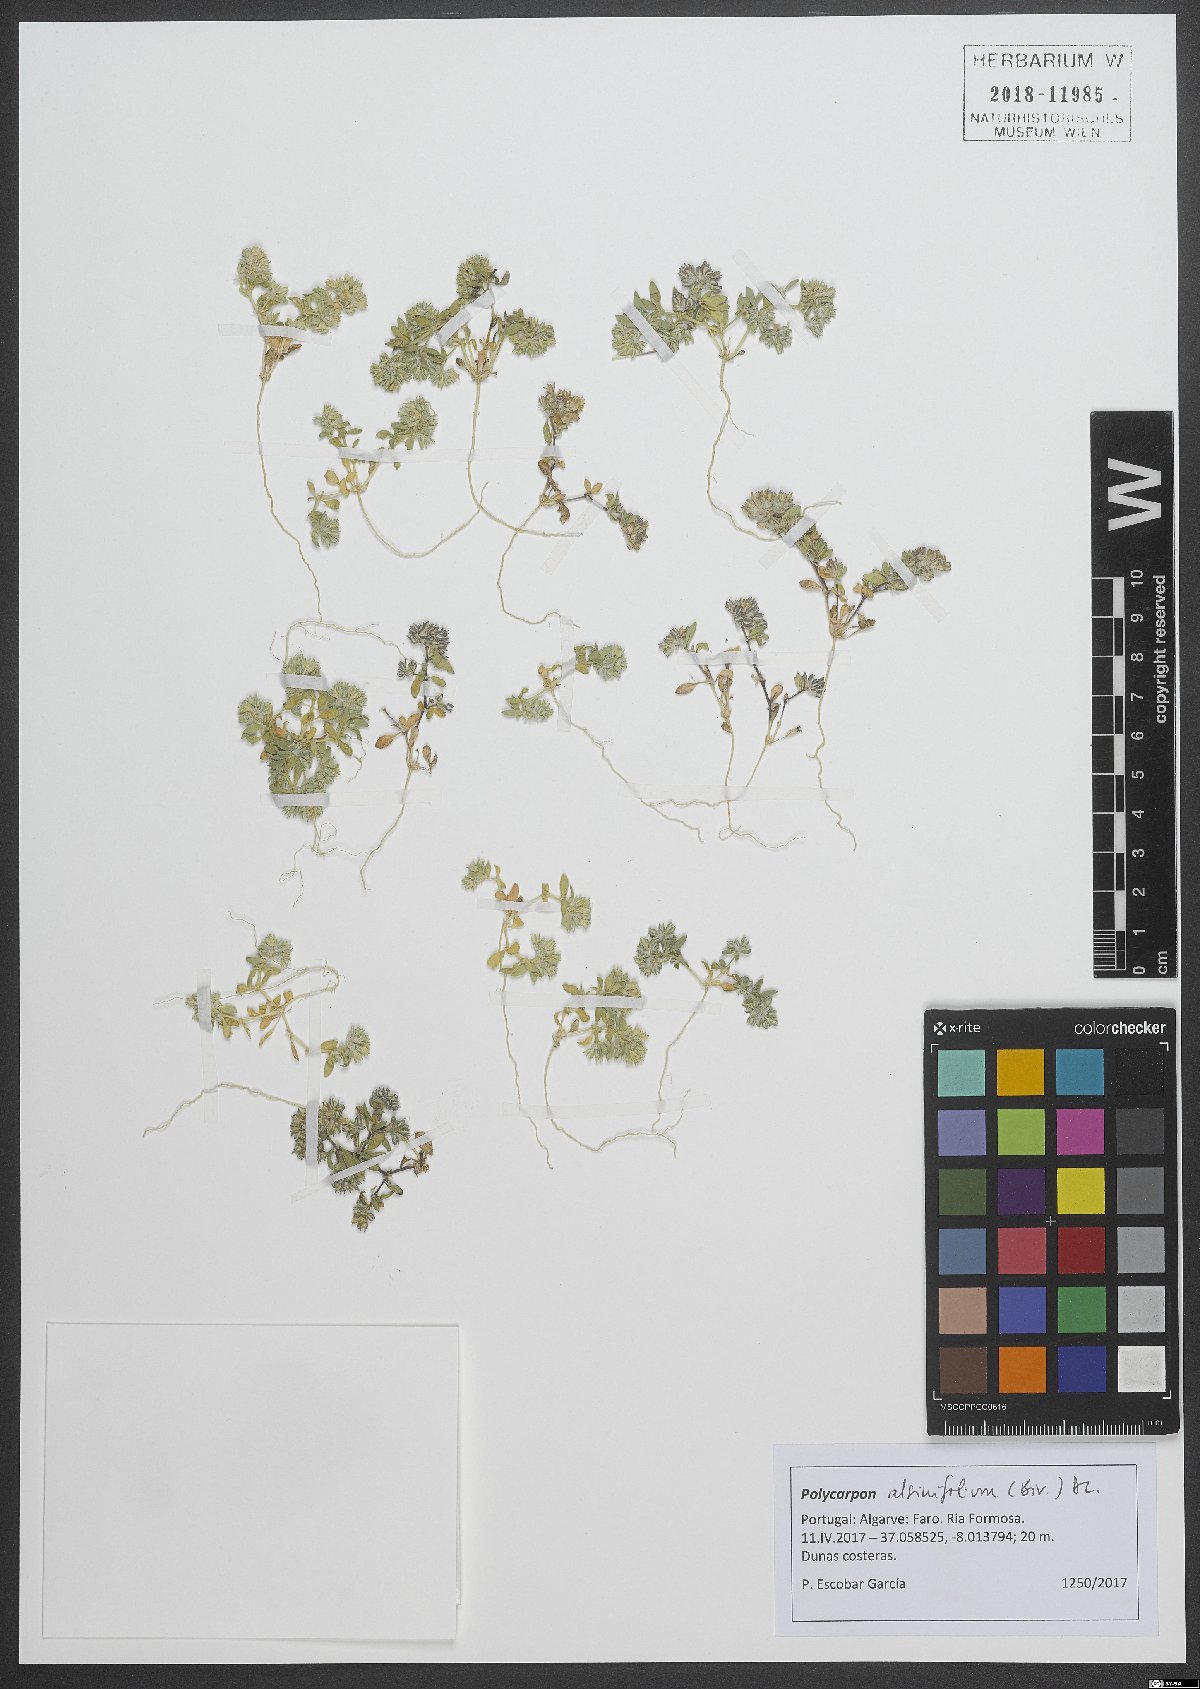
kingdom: Plantae
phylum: Tracheophyta
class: Magnoliopsida
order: Caryophyllales
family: Caryophyllaceae
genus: Polycarpon
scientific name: Polycarpon alsinifolium
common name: Fourleaf manyseed
